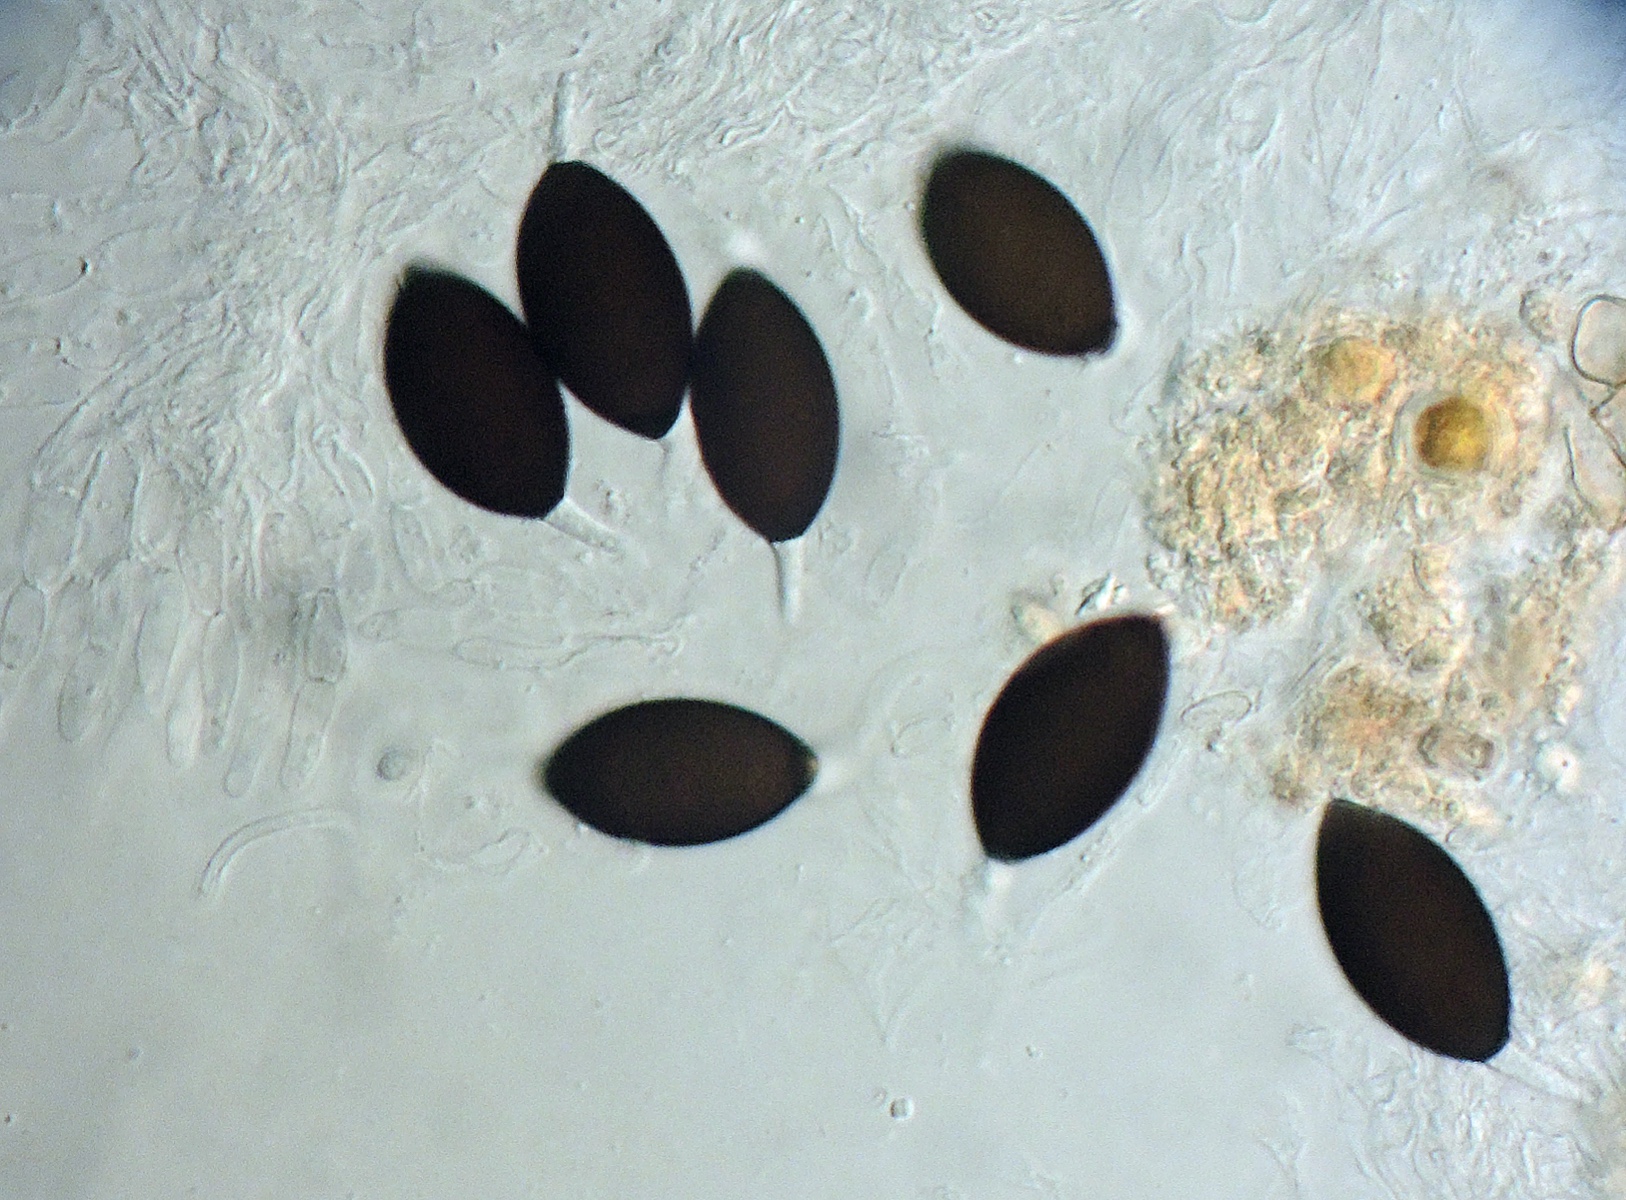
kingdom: Fungi
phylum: Ascomycota
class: Sordariomycetes
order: Sordariales
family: Neoschizotheciaceae
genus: Neoschizothecium
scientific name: Neoschizothecium conicum
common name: kegle-kernesvamp
